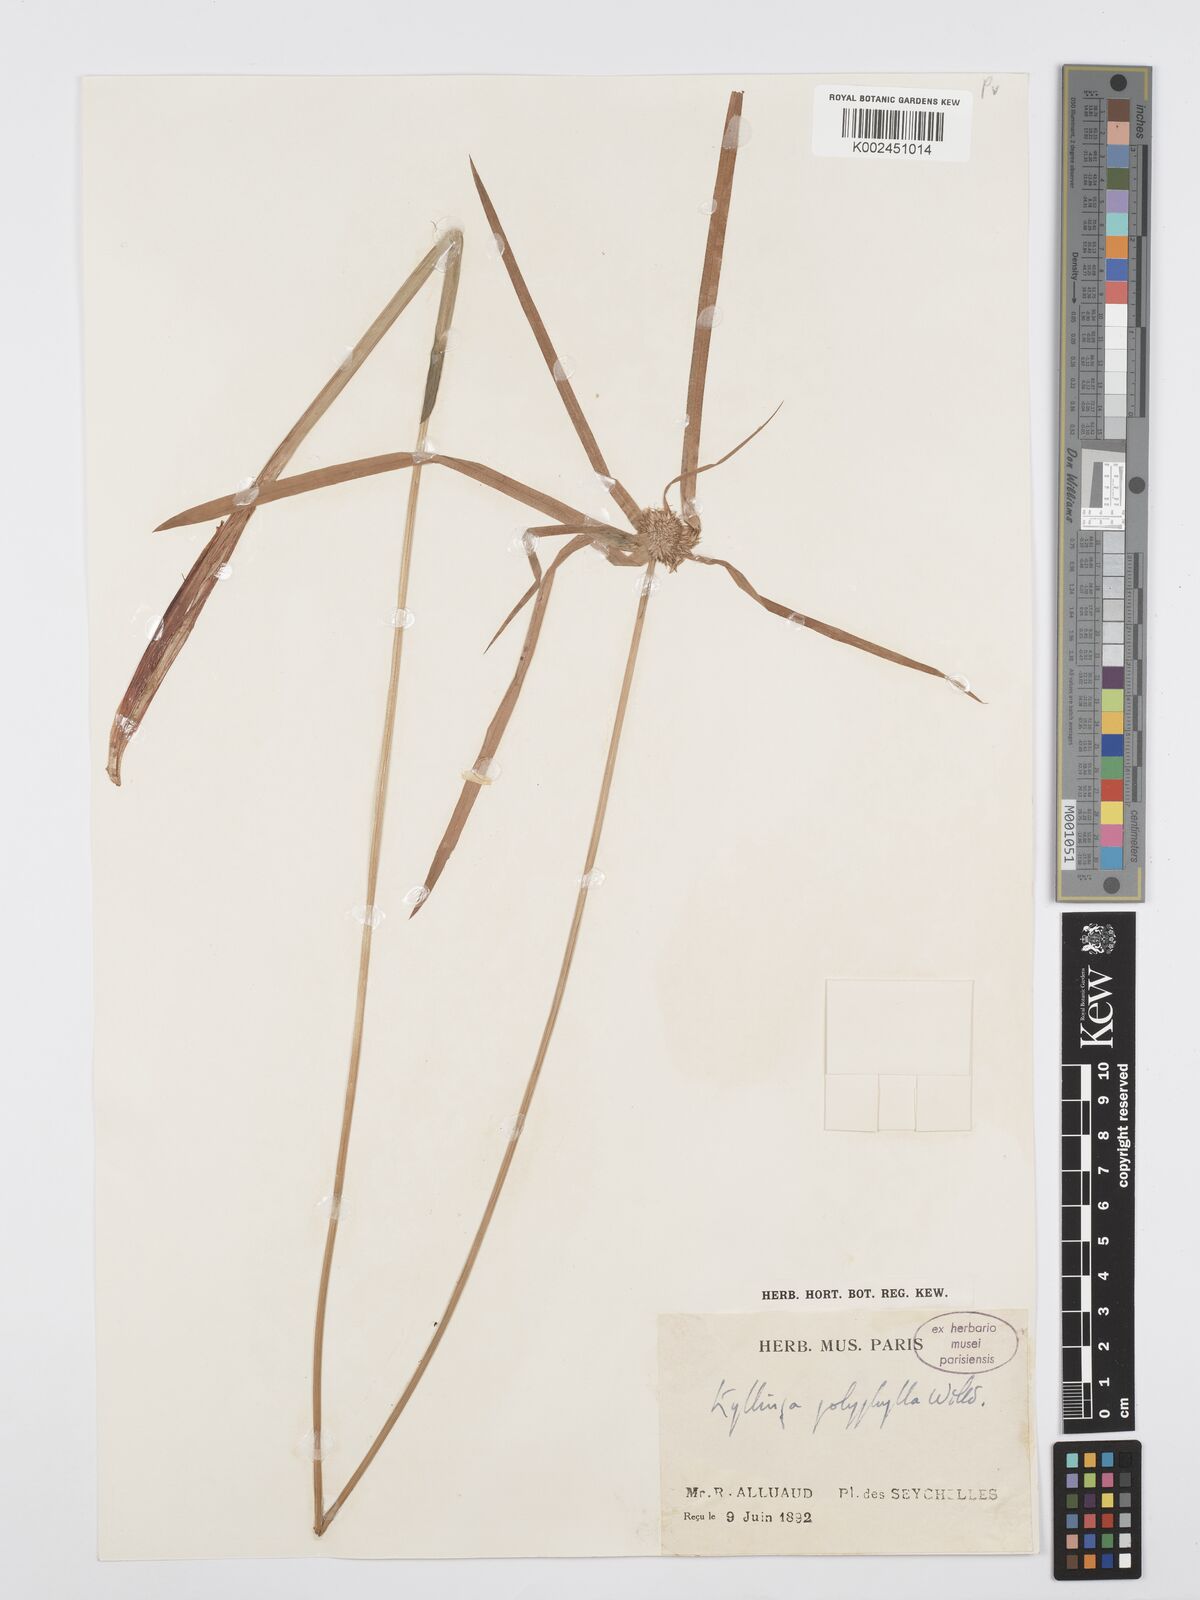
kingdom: Plantae
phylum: Tracheophyta
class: Liliopsida
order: Poales
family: Cyperaceae
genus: Cyperus
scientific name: Cyperus bulbosus
